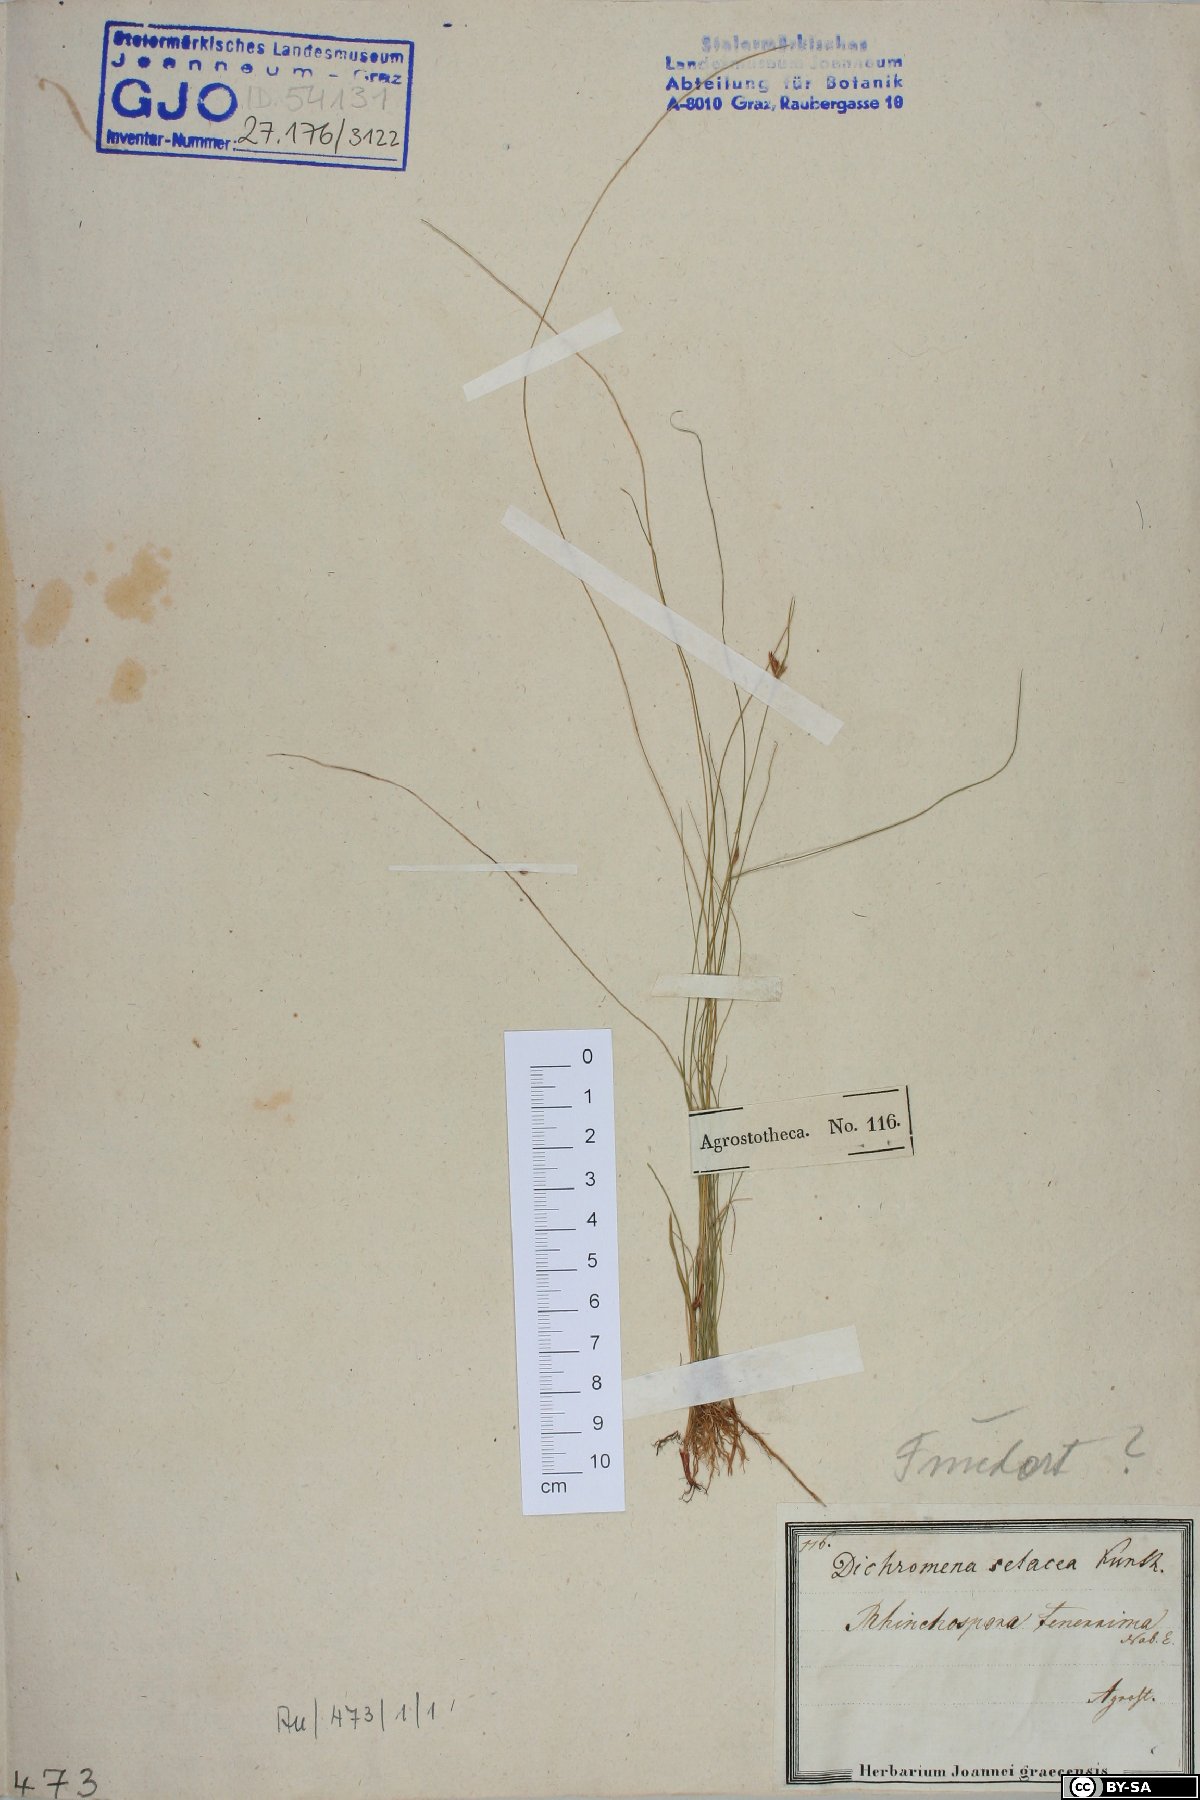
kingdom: Plantae
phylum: Tracheophyta
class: Liliopsida
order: Poales
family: Cyperaceae
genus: Rhynchospora
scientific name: Rhynchospora tenerrima
